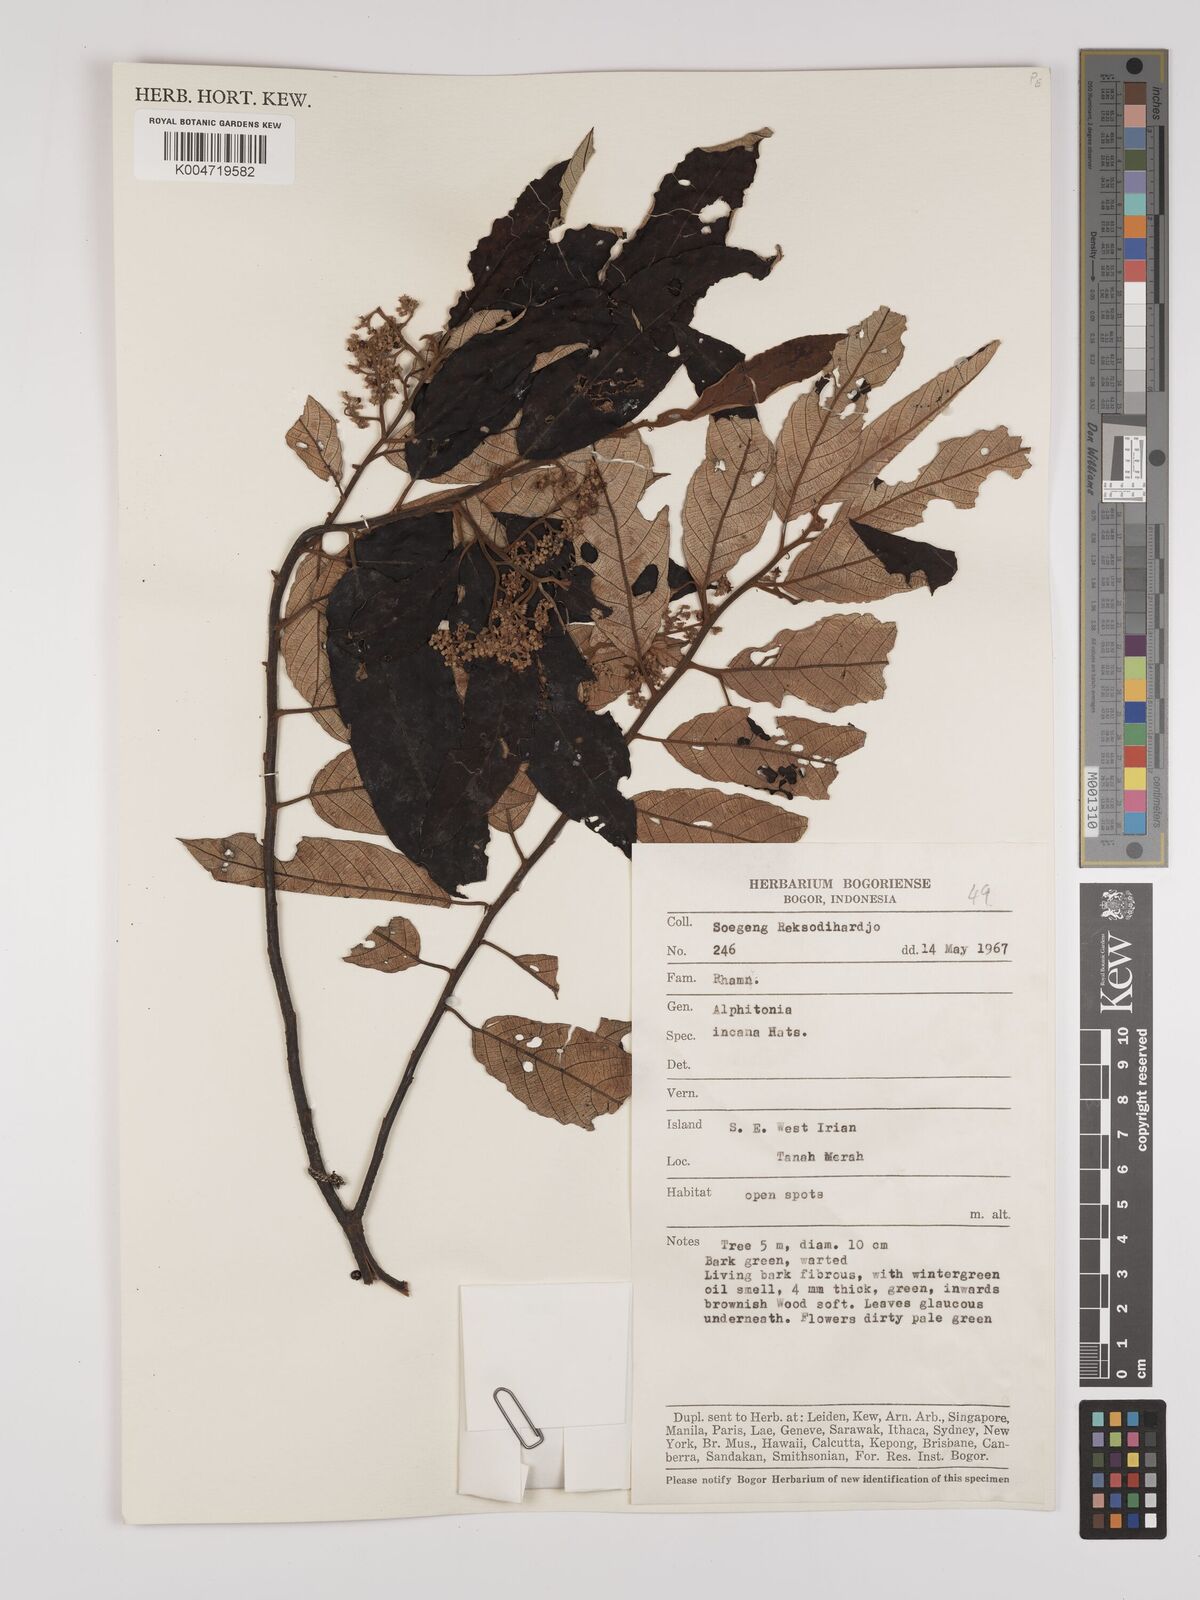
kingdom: Plantae
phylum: Tracheophyta
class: Magnoliopsida
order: Rosales
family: Rhamnaceae
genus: Alphitonia
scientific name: Alphitonia incana
